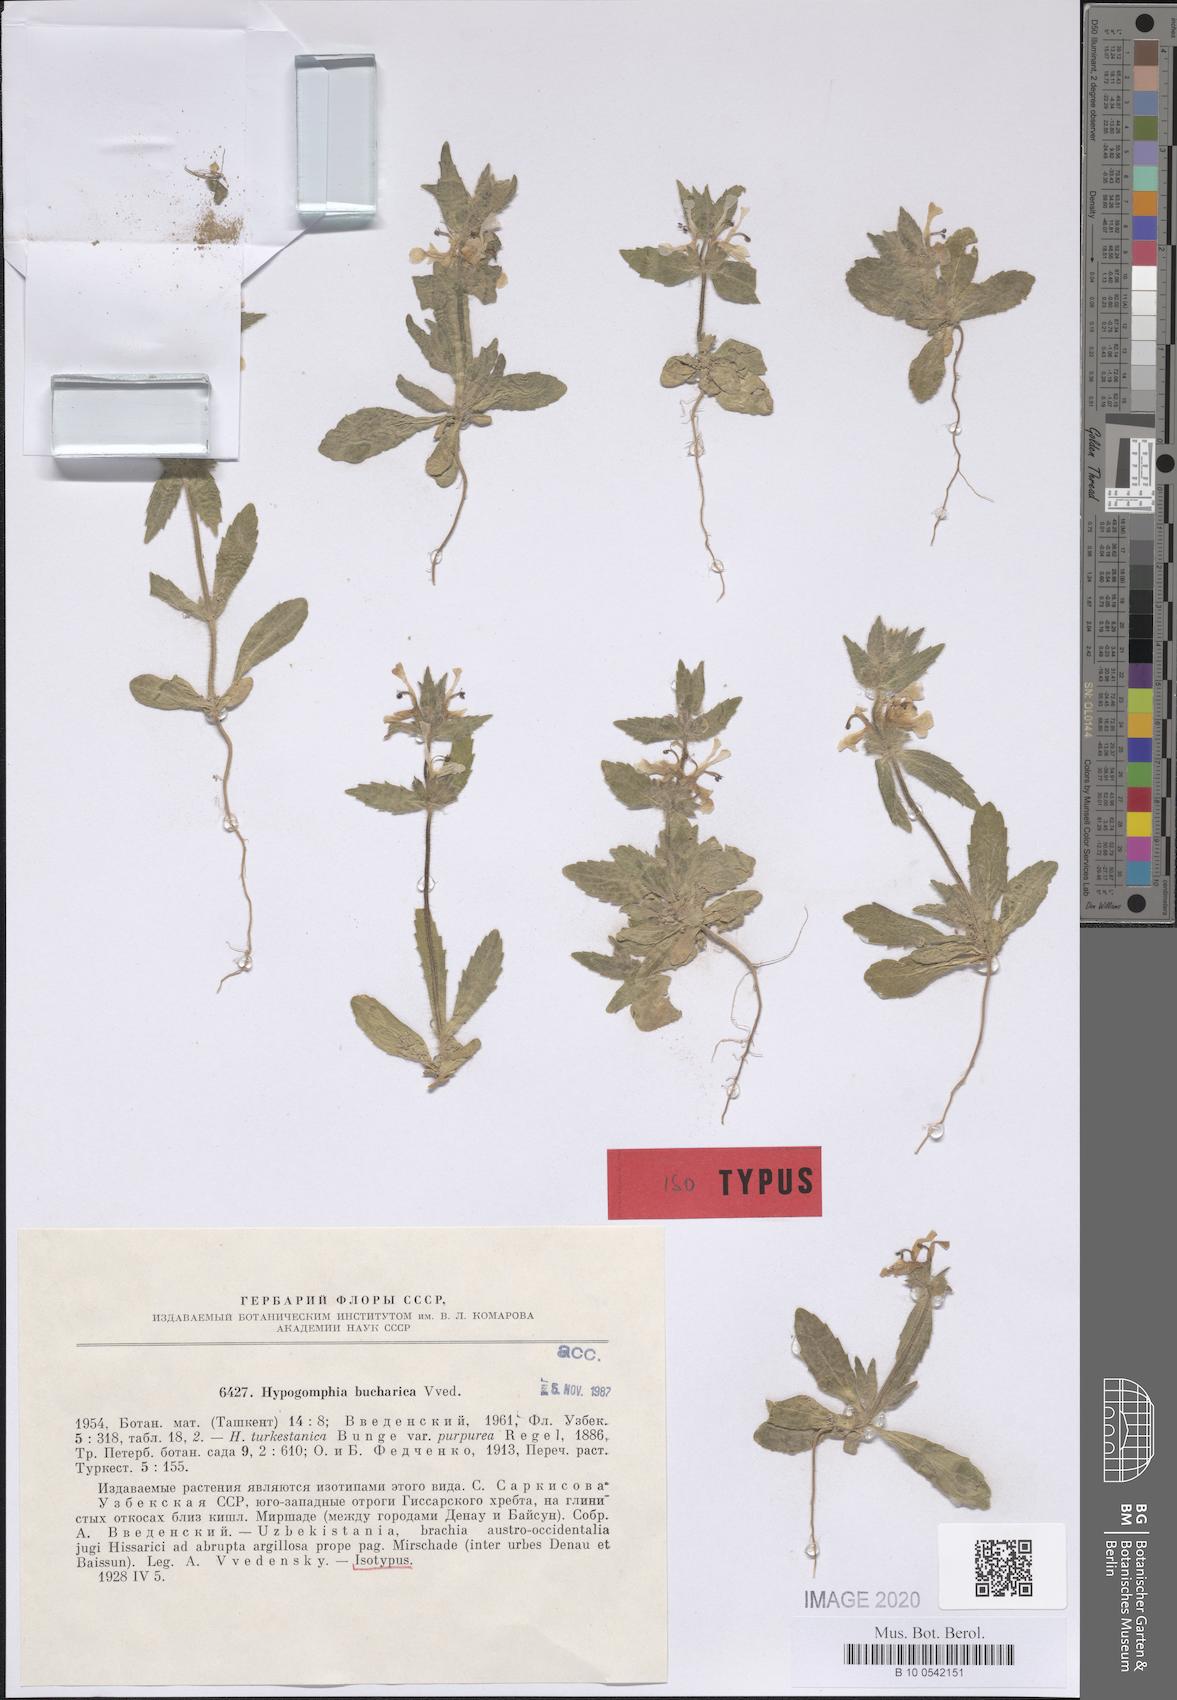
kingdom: Plantae
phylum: Tracheophyta
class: Magnoliopsida
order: Lamiales
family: Lamiaceae
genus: Hypogomphia
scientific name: Hypogomphia bucharica
